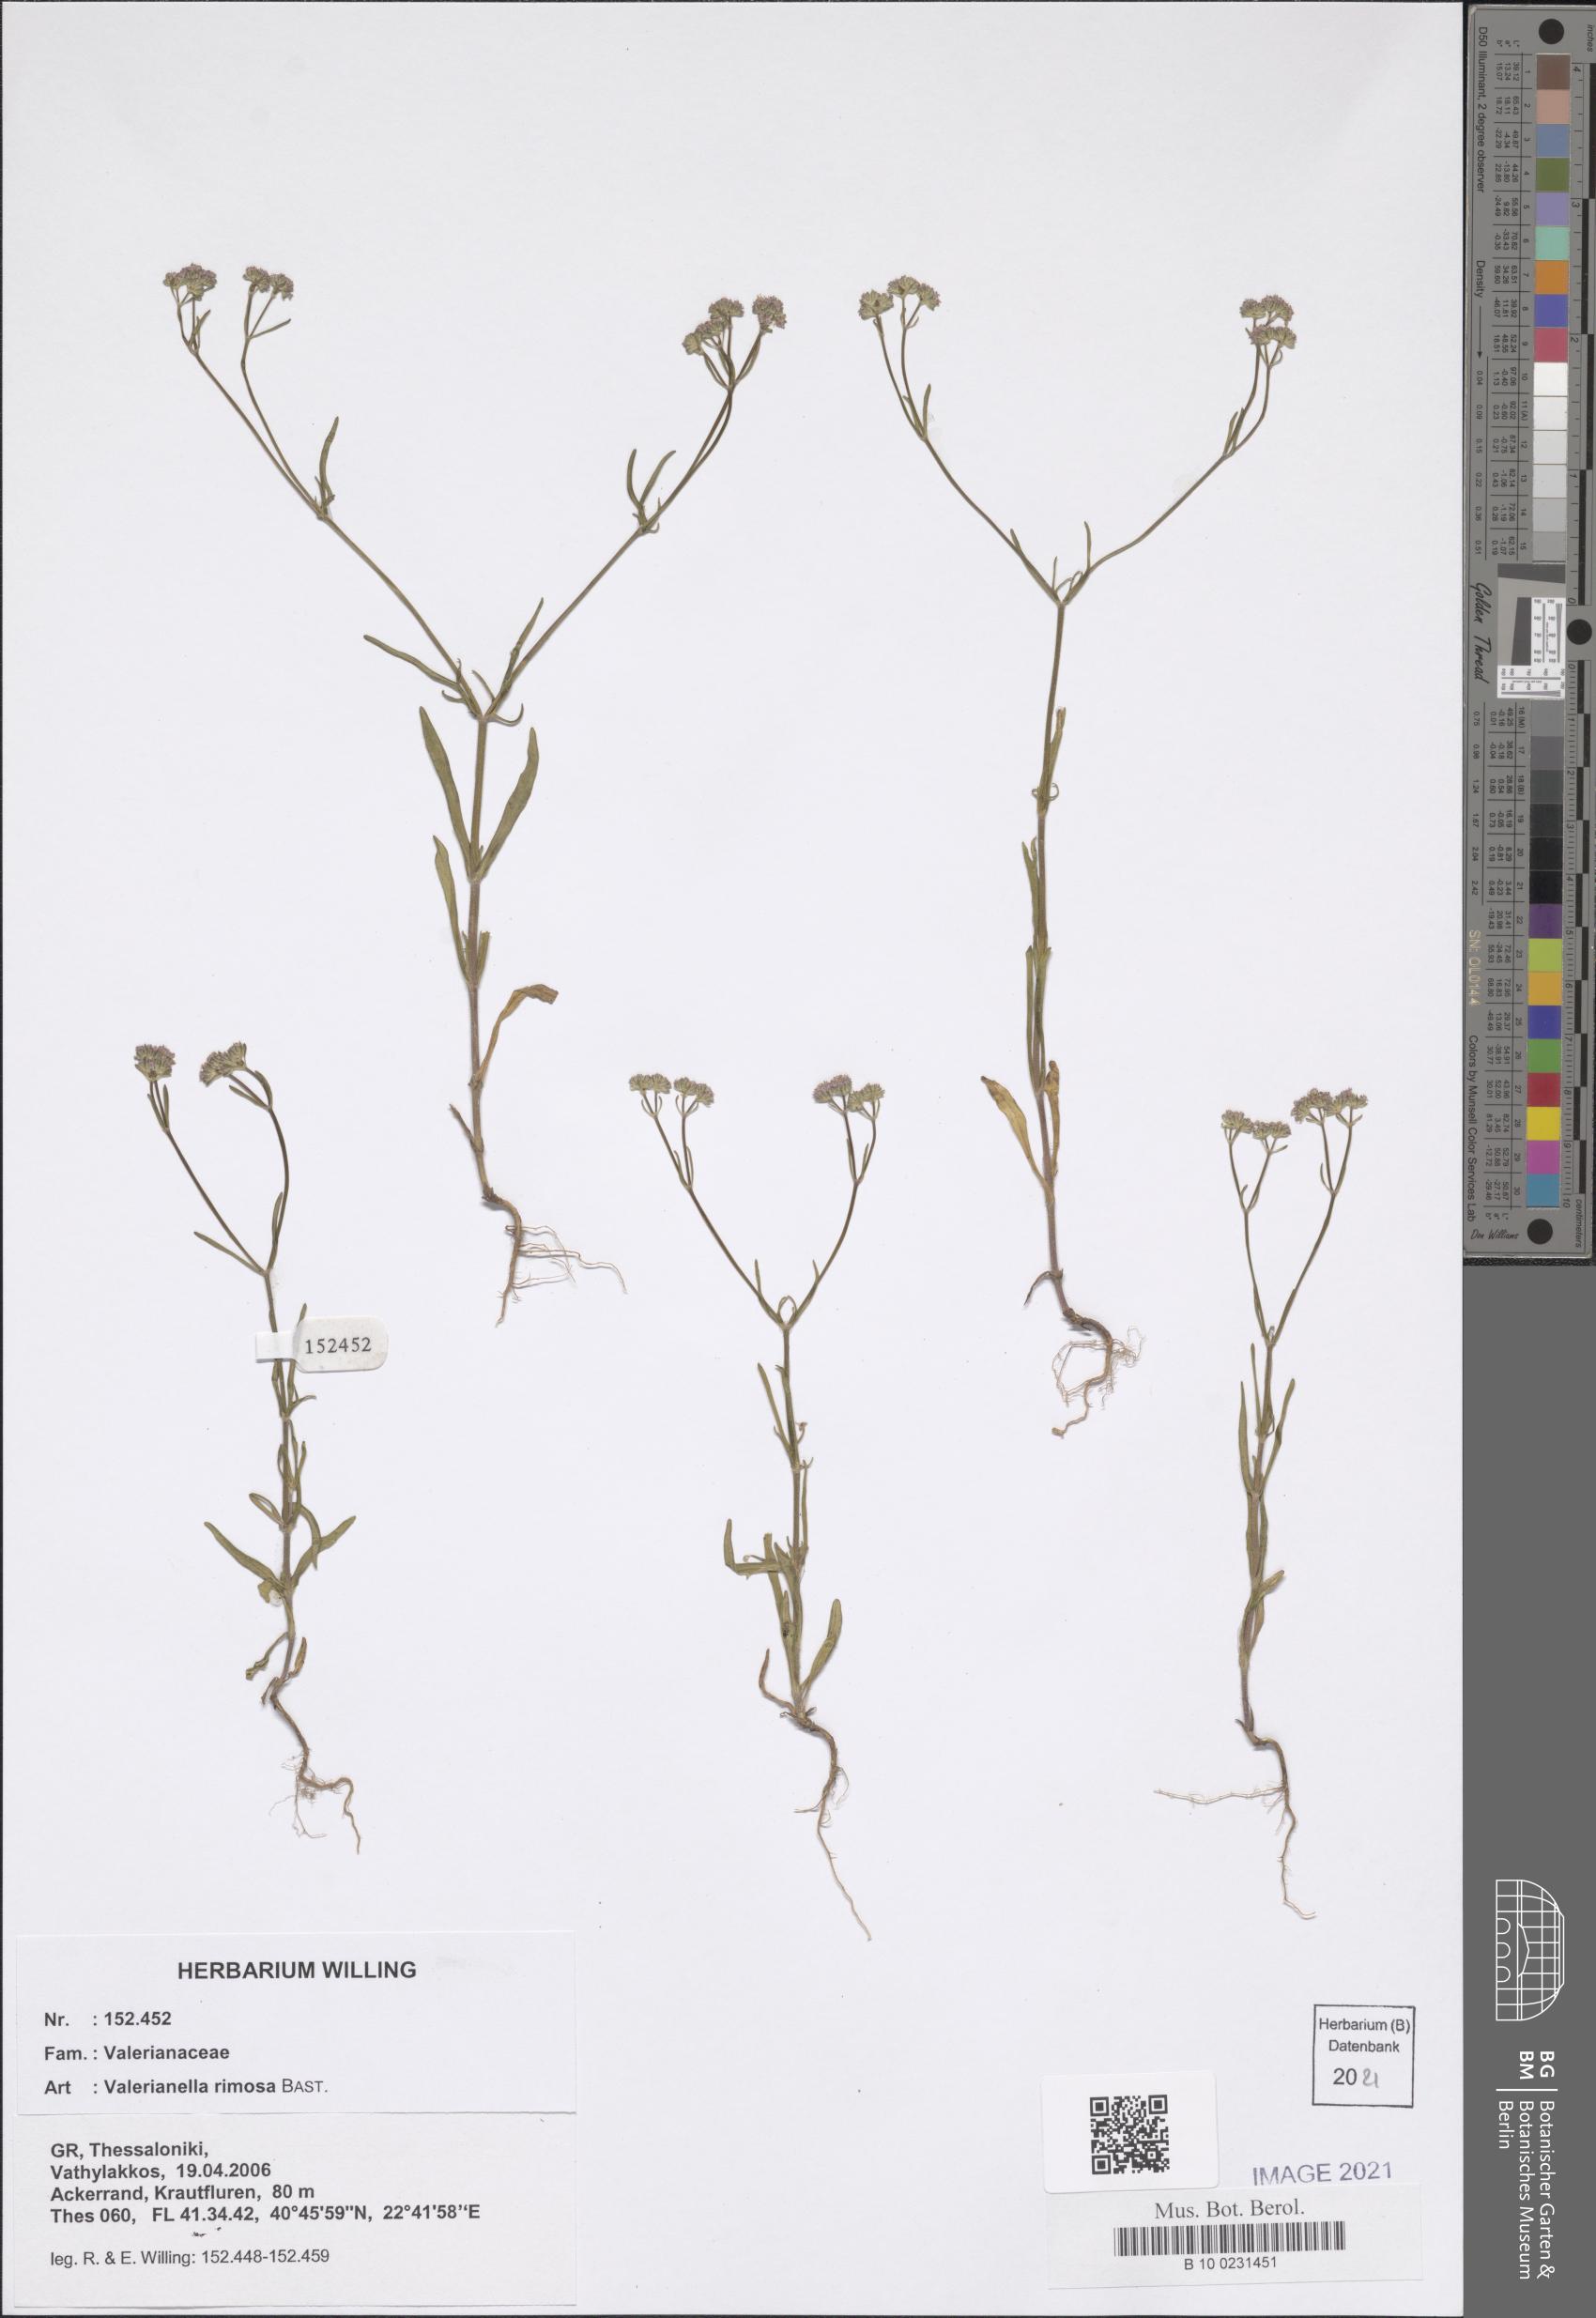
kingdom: Plantae
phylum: Tracheophyta
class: Magnoliopsida
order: Dipsacales
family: Caprifoliaceae
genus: Valerianella
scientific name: Valerianella rimosa
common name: Broad-fruited cornsalad
